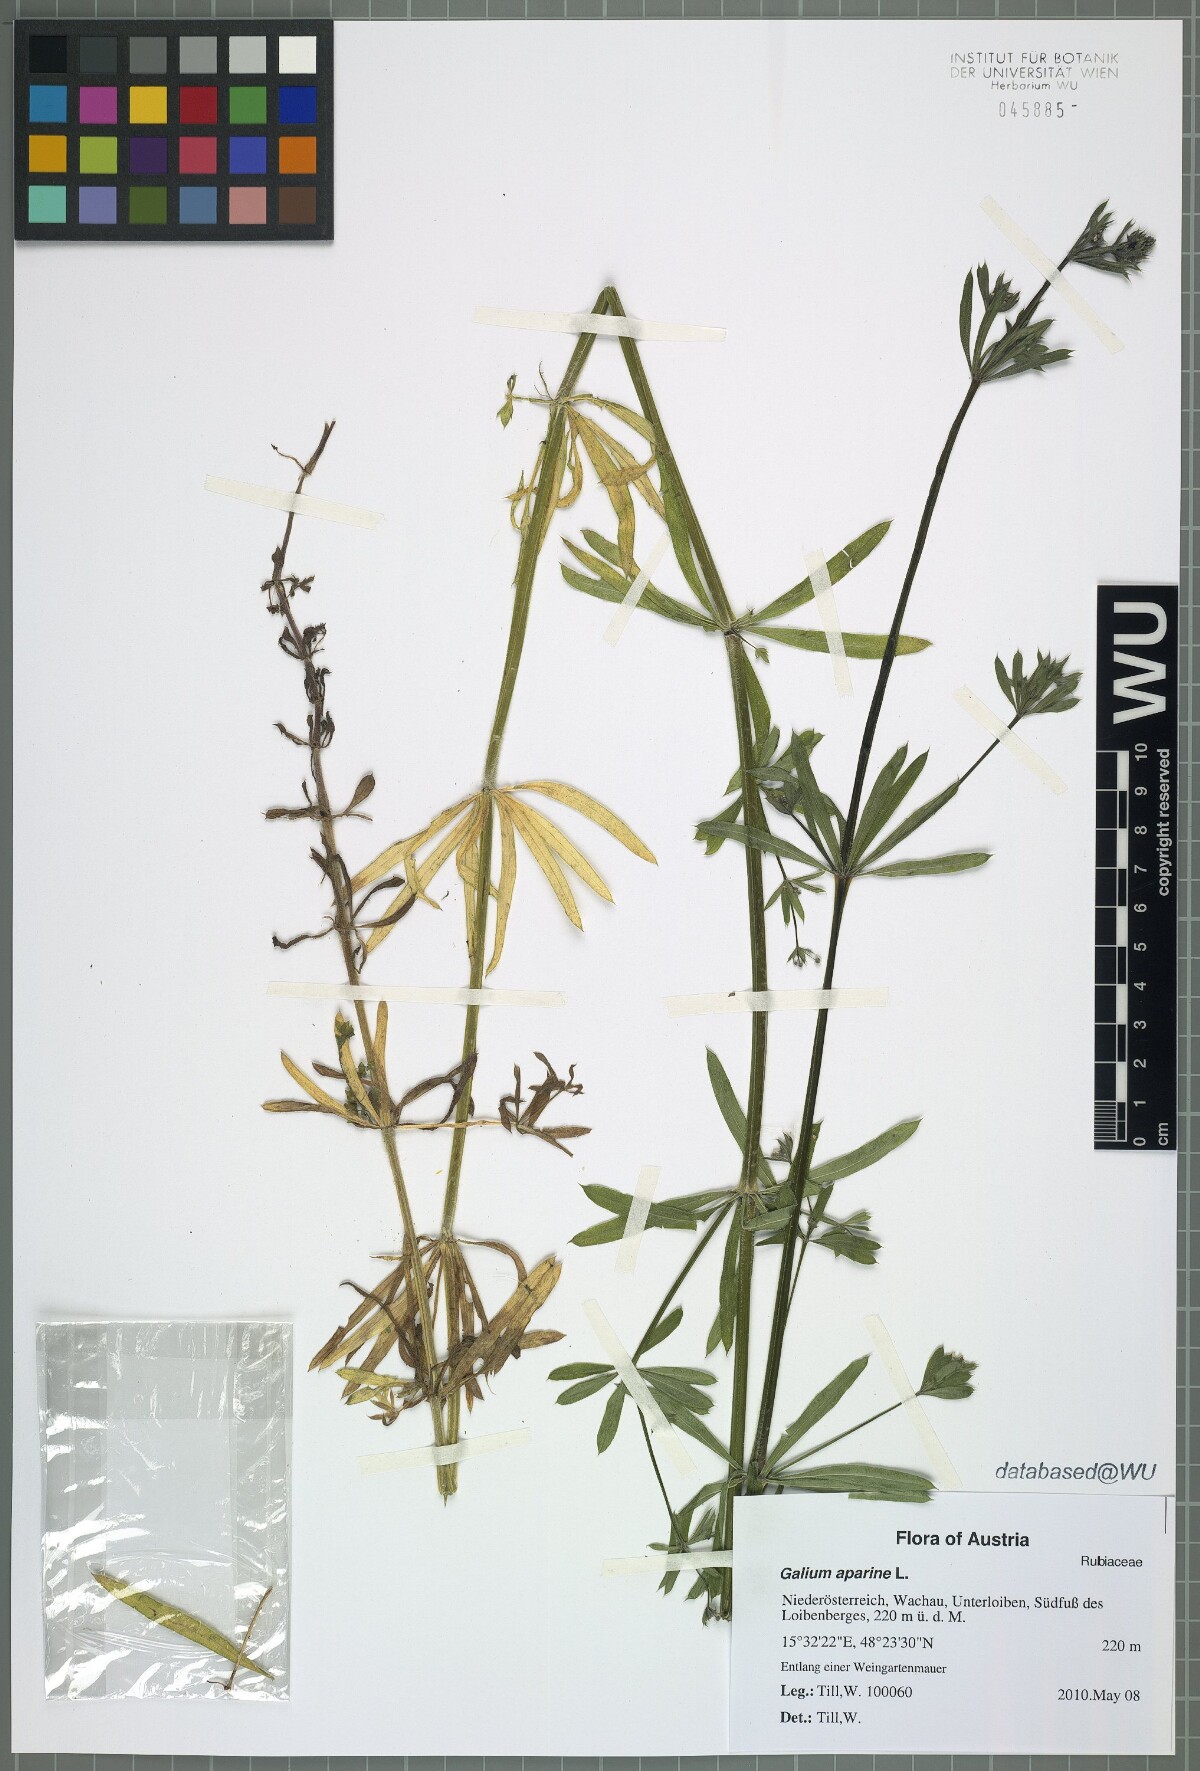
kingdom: Plantae
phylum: Tracheophyta
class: Magnoliopsida
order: Gentianales
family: Rubiaceae
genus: Galium
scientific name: Galium aparine
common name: Cleavers
